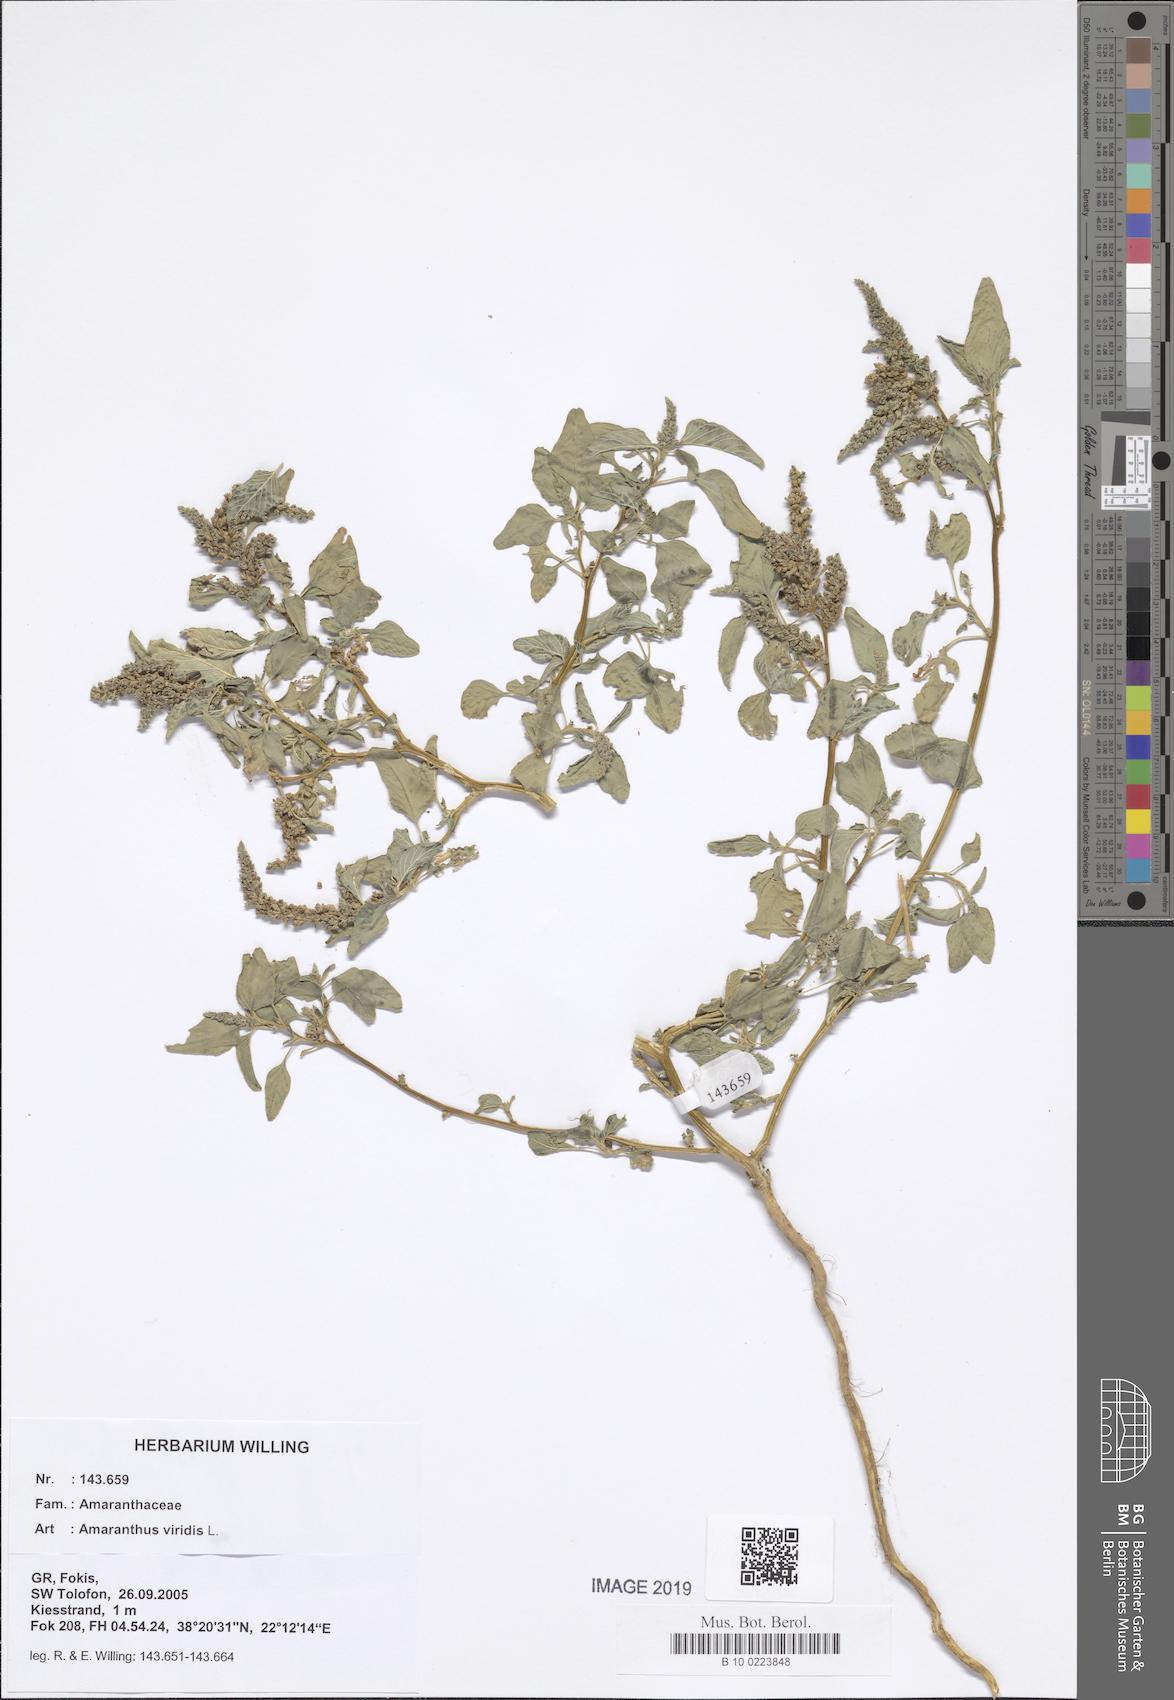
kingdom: Plantae
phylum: Tracheophyta
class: Magnoliopsida
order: Caryophyllales
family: Amaranthaceae
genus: Amaranthus
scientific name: Amaranthus viridis
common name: Slender amaranth
